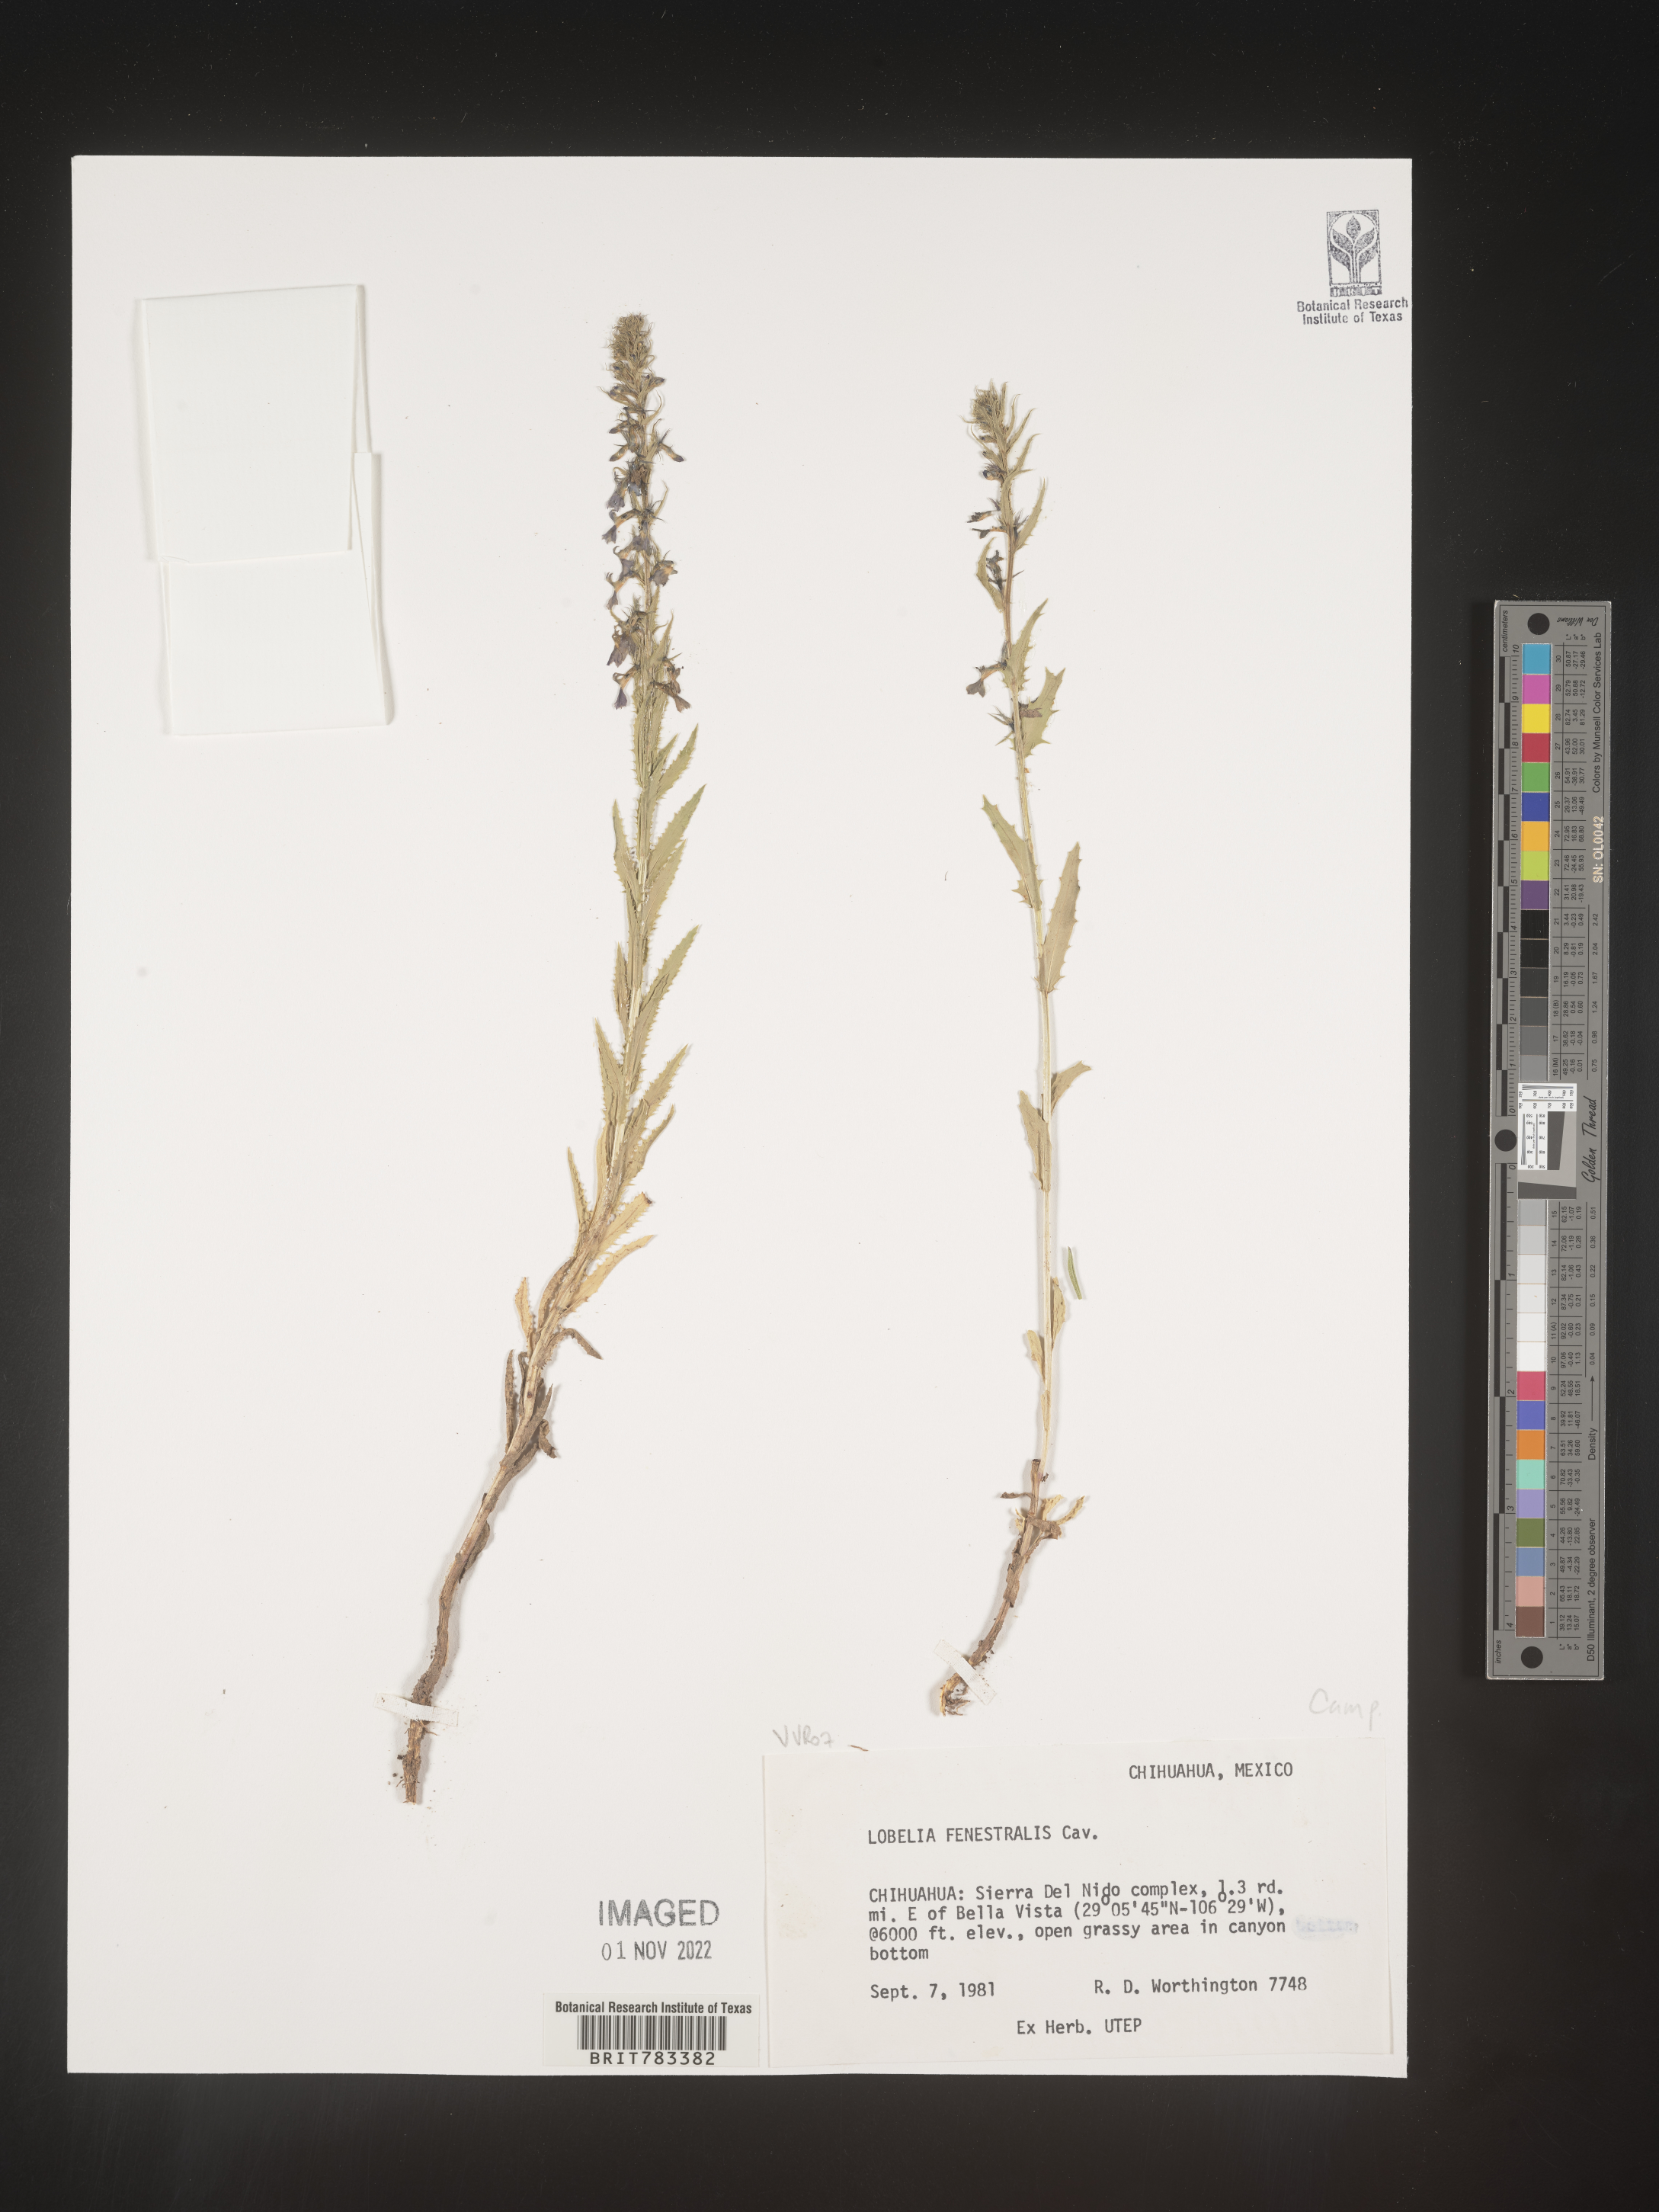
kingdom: Plantae
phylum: Tracheophyta
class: Magnoliopsida
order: Asterales
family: Campanulaceae
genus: Lobelia
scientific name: Lobelia
